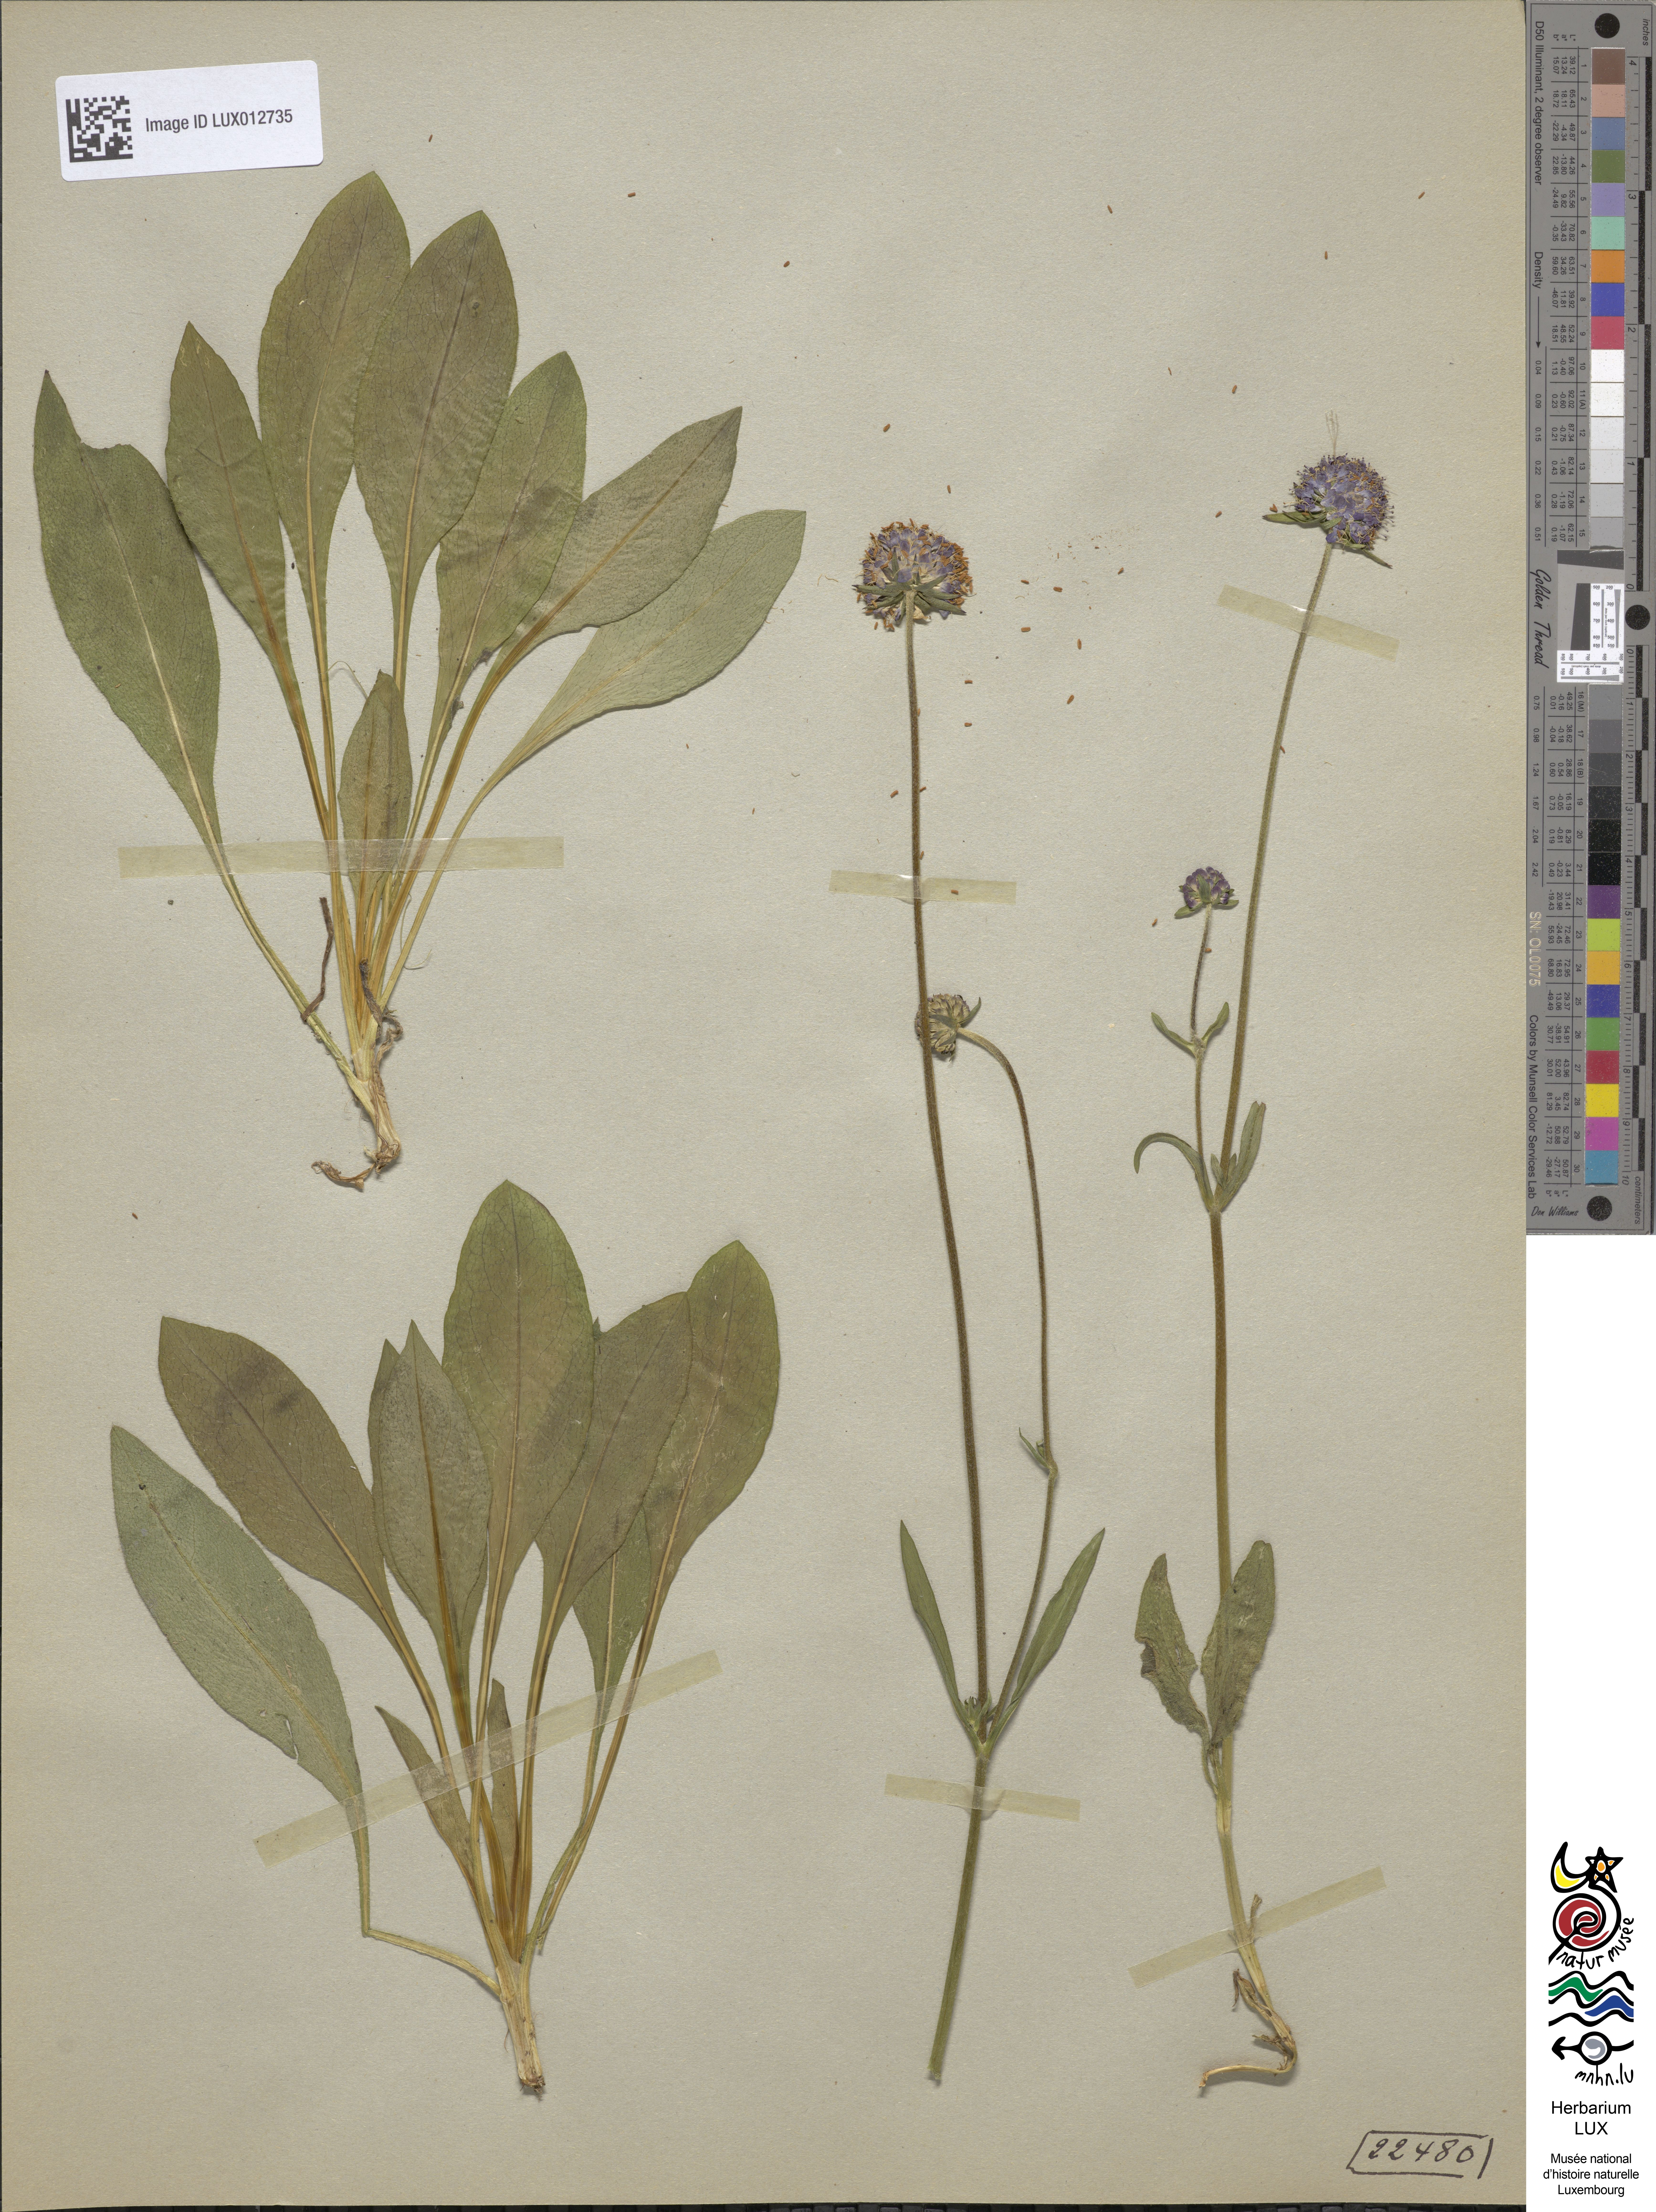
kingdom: Plantae
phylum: Tracheophyta
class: Magnoliopsida
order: Dipsacales
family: Caprifoliaceae
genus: Succisa
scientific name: Succisa pratensis
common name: Devil's-bit
